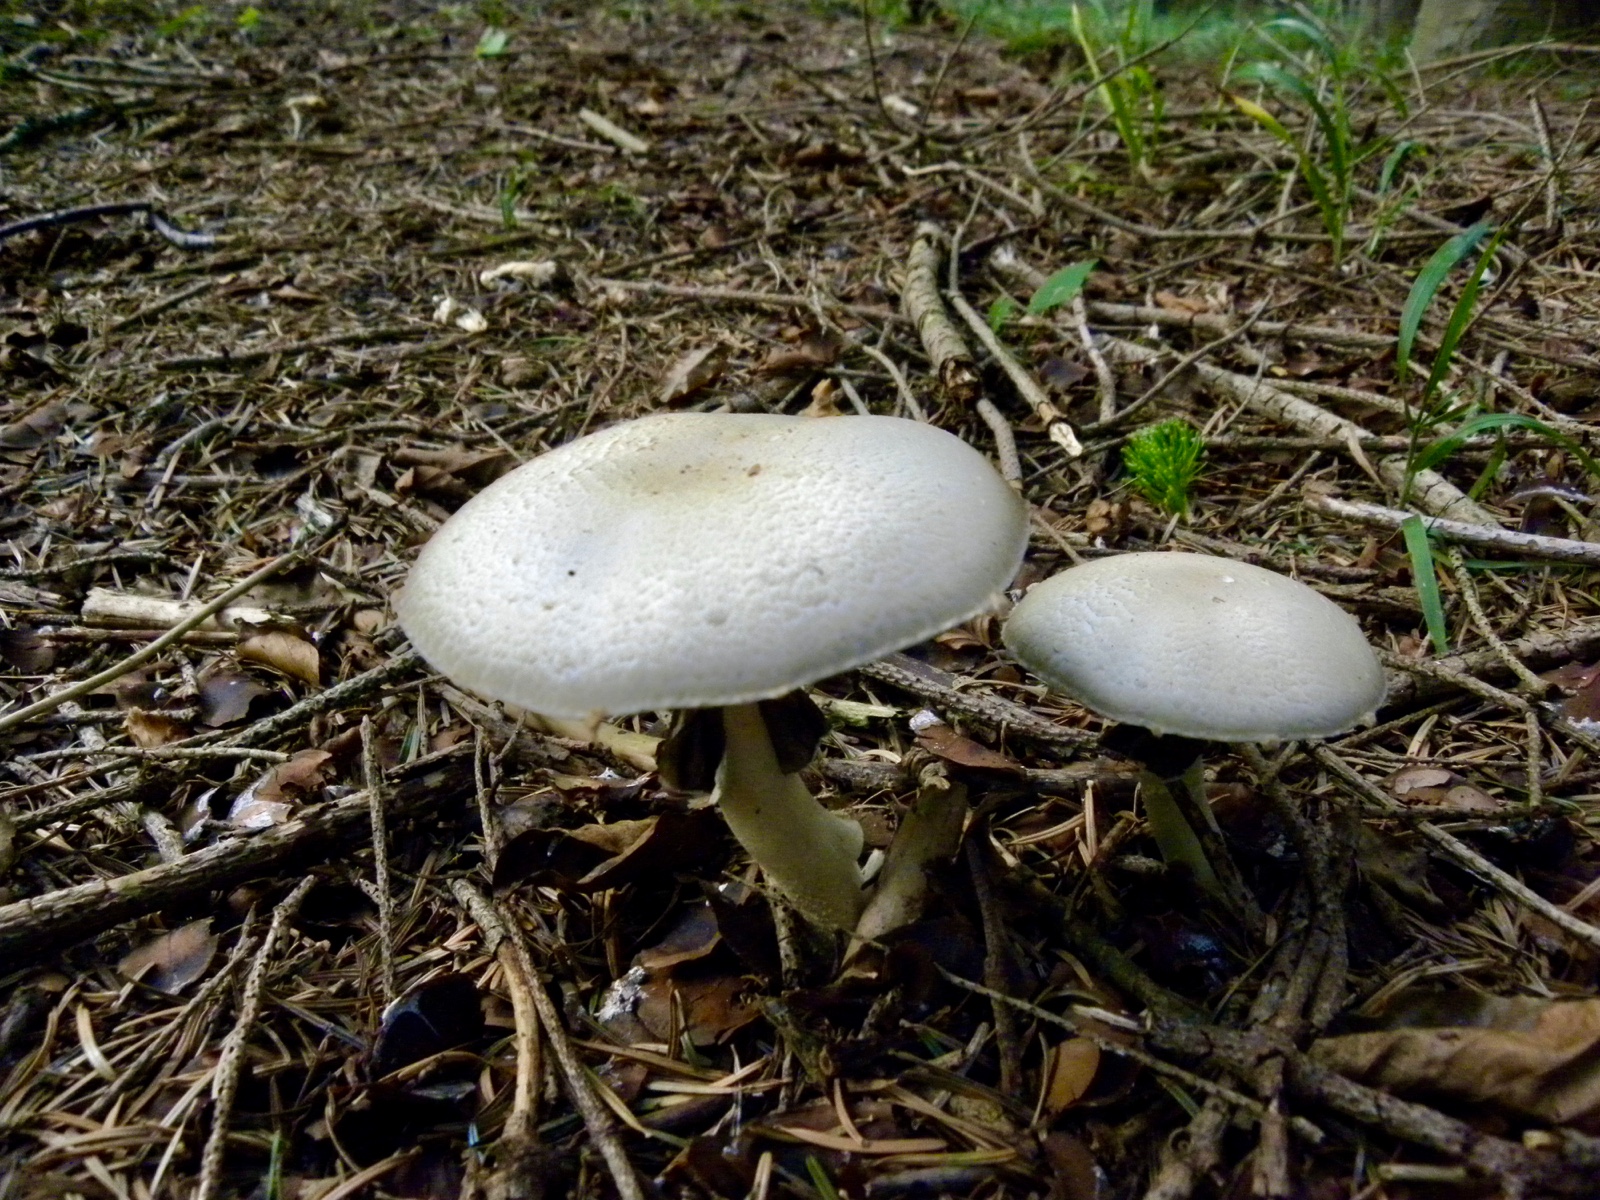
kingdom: Fungi
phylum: Basidiomycota
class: Agaricomycetes
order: Agaricales
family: Agaricaceae
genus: Agaricus
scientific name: Agaricus
